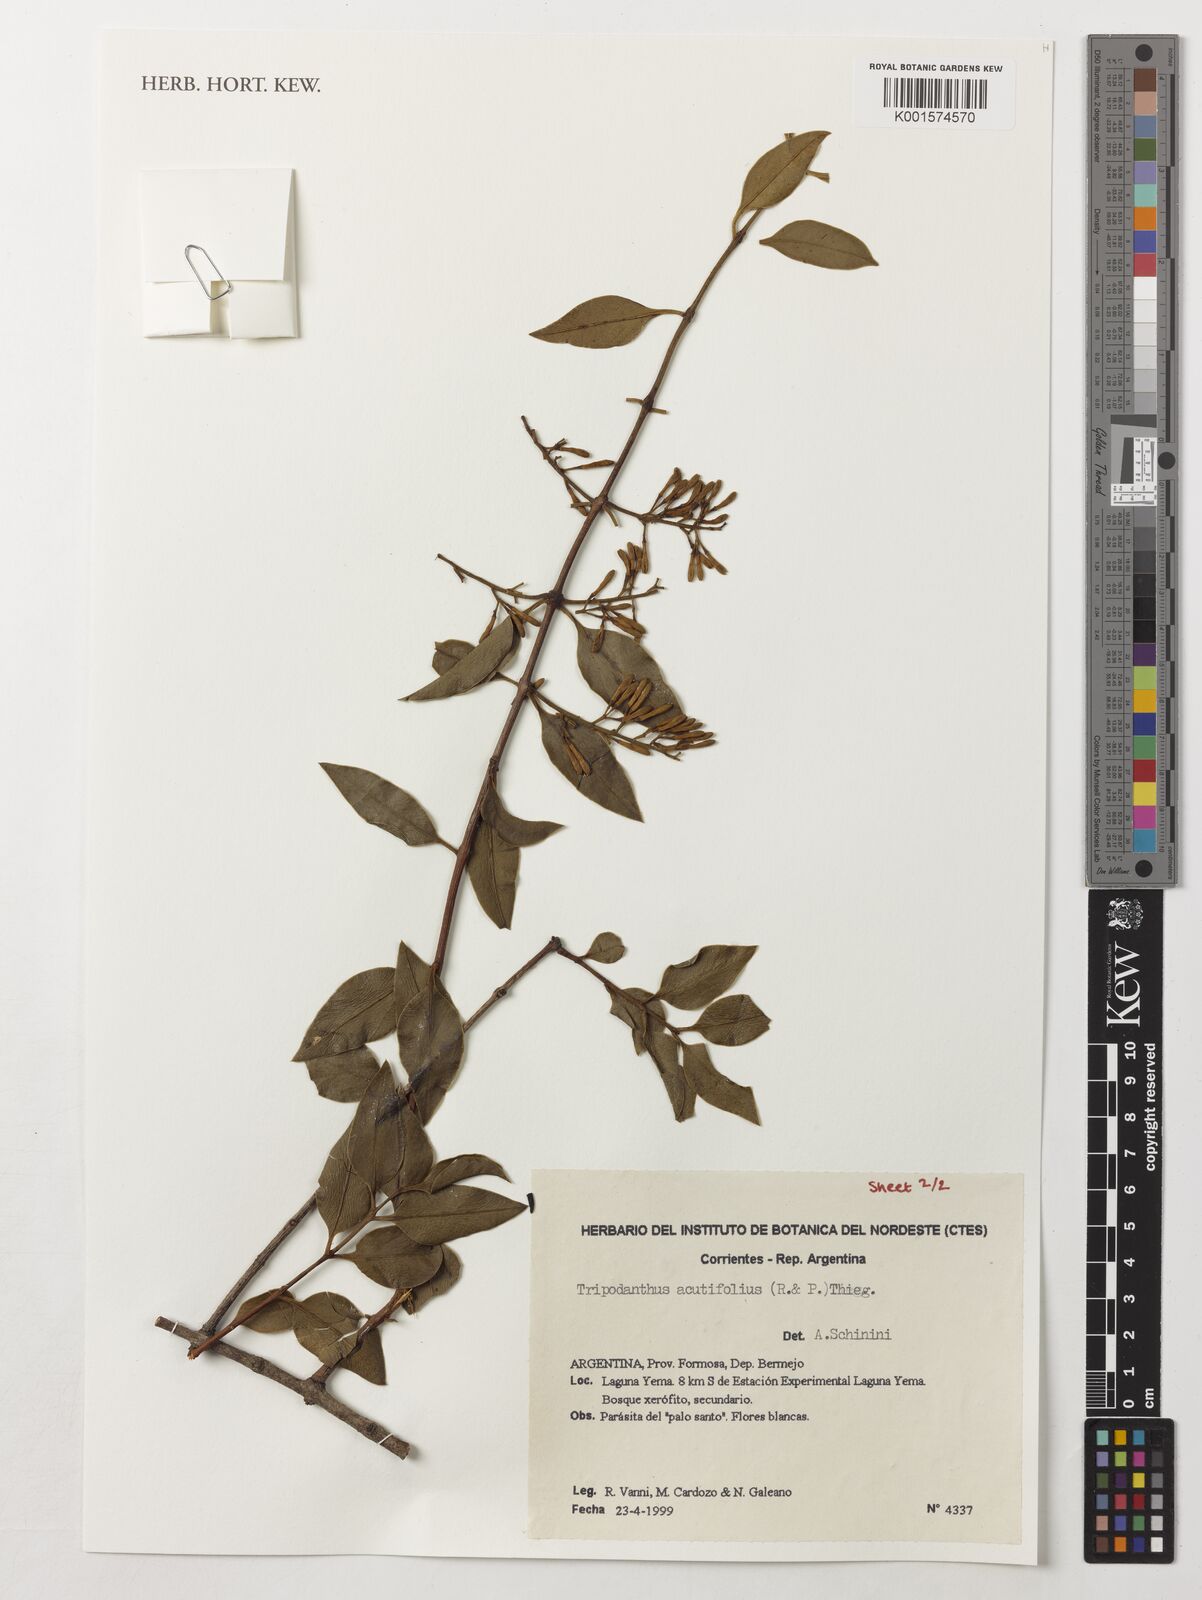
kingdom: Plantae
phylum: Tracheophyta
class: Magnoliopsida
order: Santalales
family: Loranthaceae
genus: Tripodanthus
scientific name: Tripodanthus acutifolius
